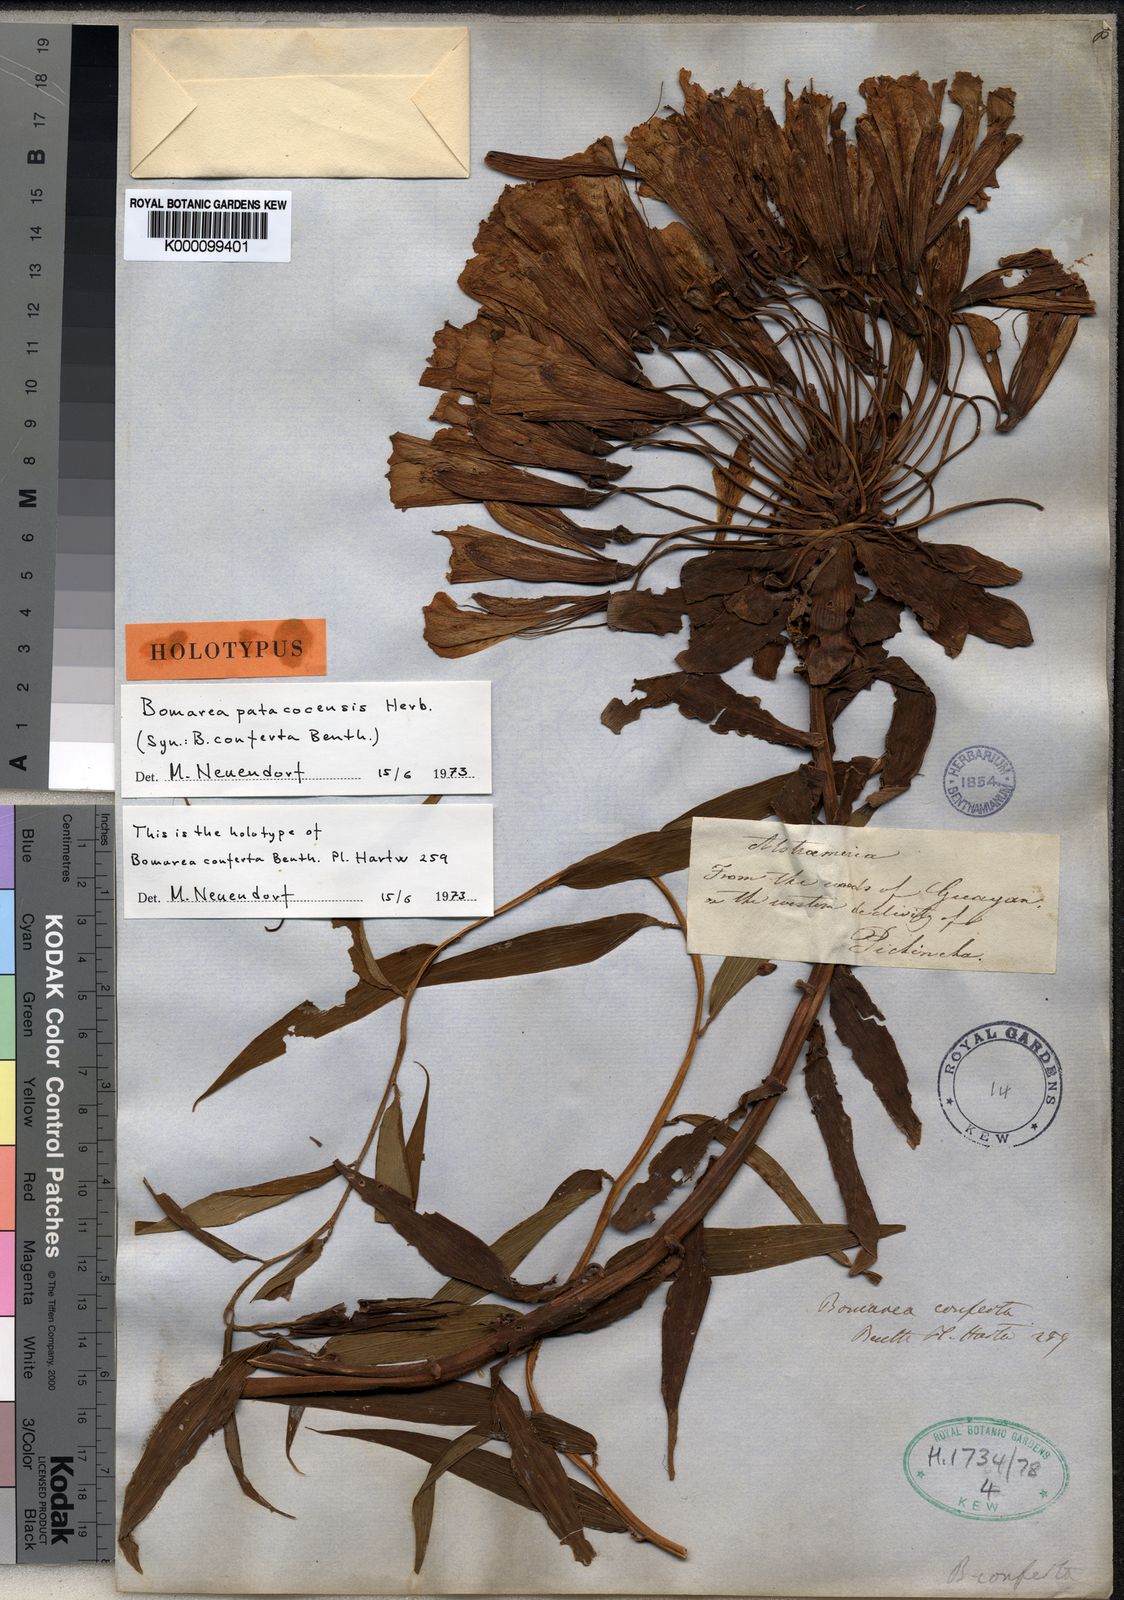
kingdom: Plantae
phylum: Tracheophyta
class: Liliopsida
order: Liliales
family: Alstroemeriaceae
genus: Bomarea
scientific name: Bomarea patacocensis
